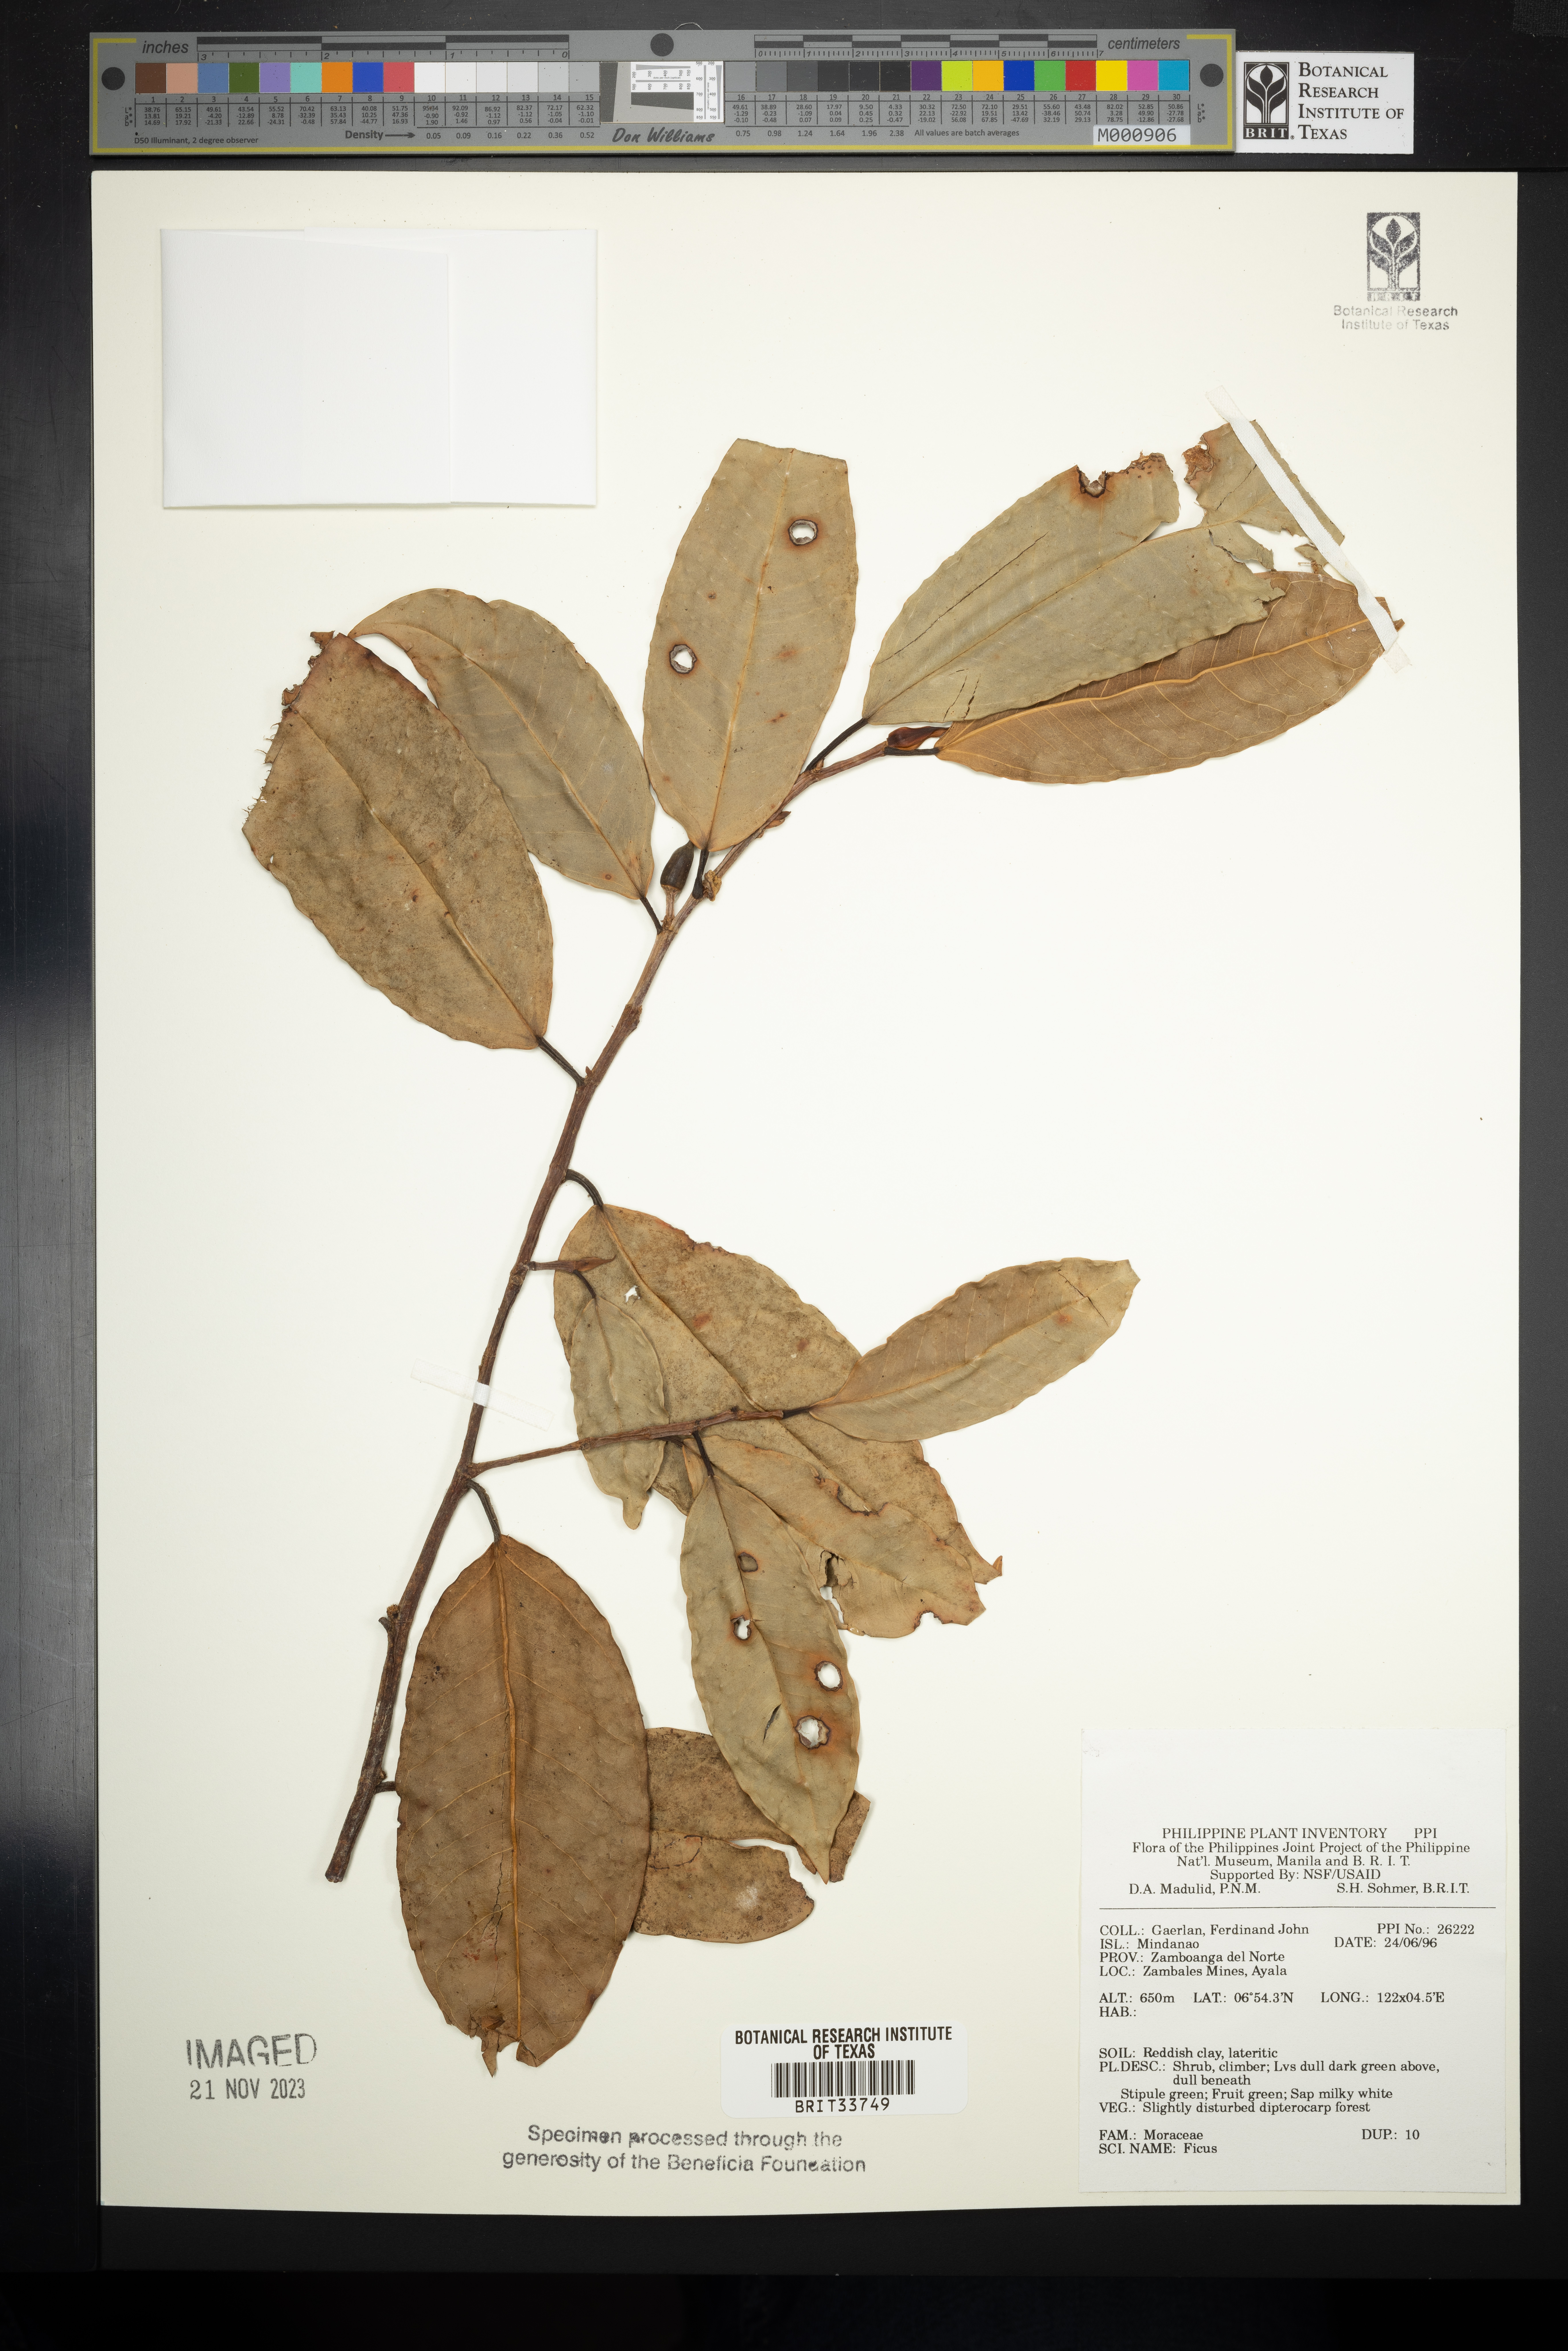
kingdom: Plantae
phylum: Tracheophyta
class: Magnoliopsida
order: Rosales
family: Moraceae
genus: Ficus
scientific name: Ficus
